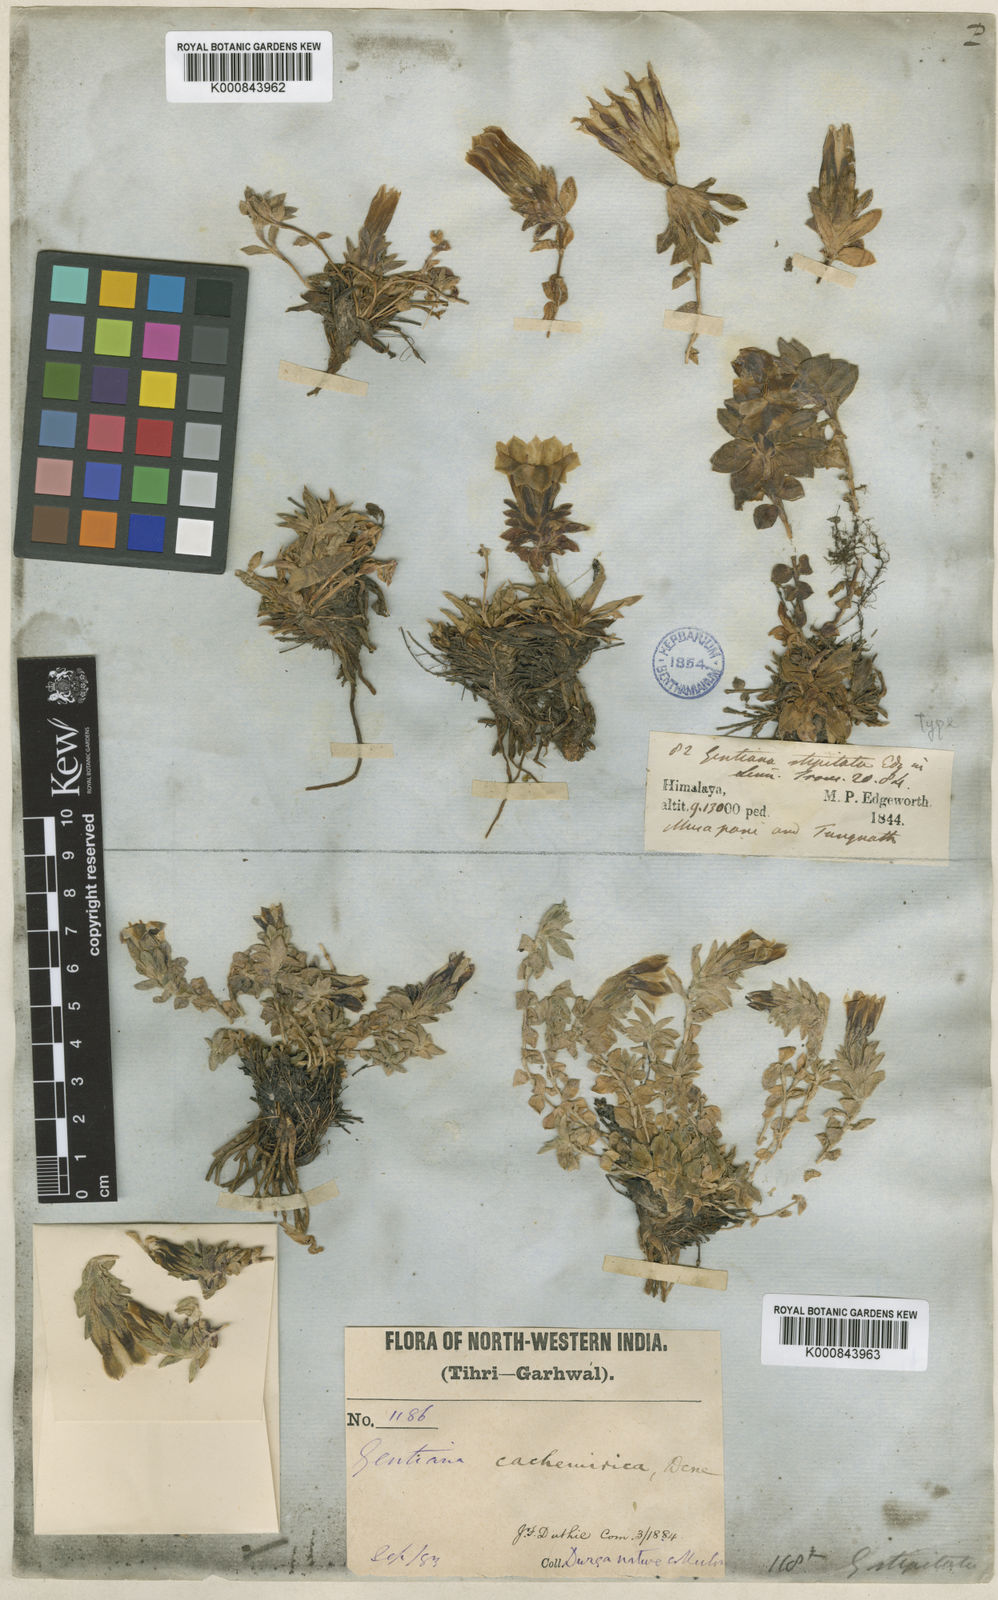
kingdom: Plantae
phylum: Tracheophyta
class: Magnoliopsida
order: Gentianales
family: Gentianaceae
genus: Gentiana
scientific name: Gentiana stipitata
